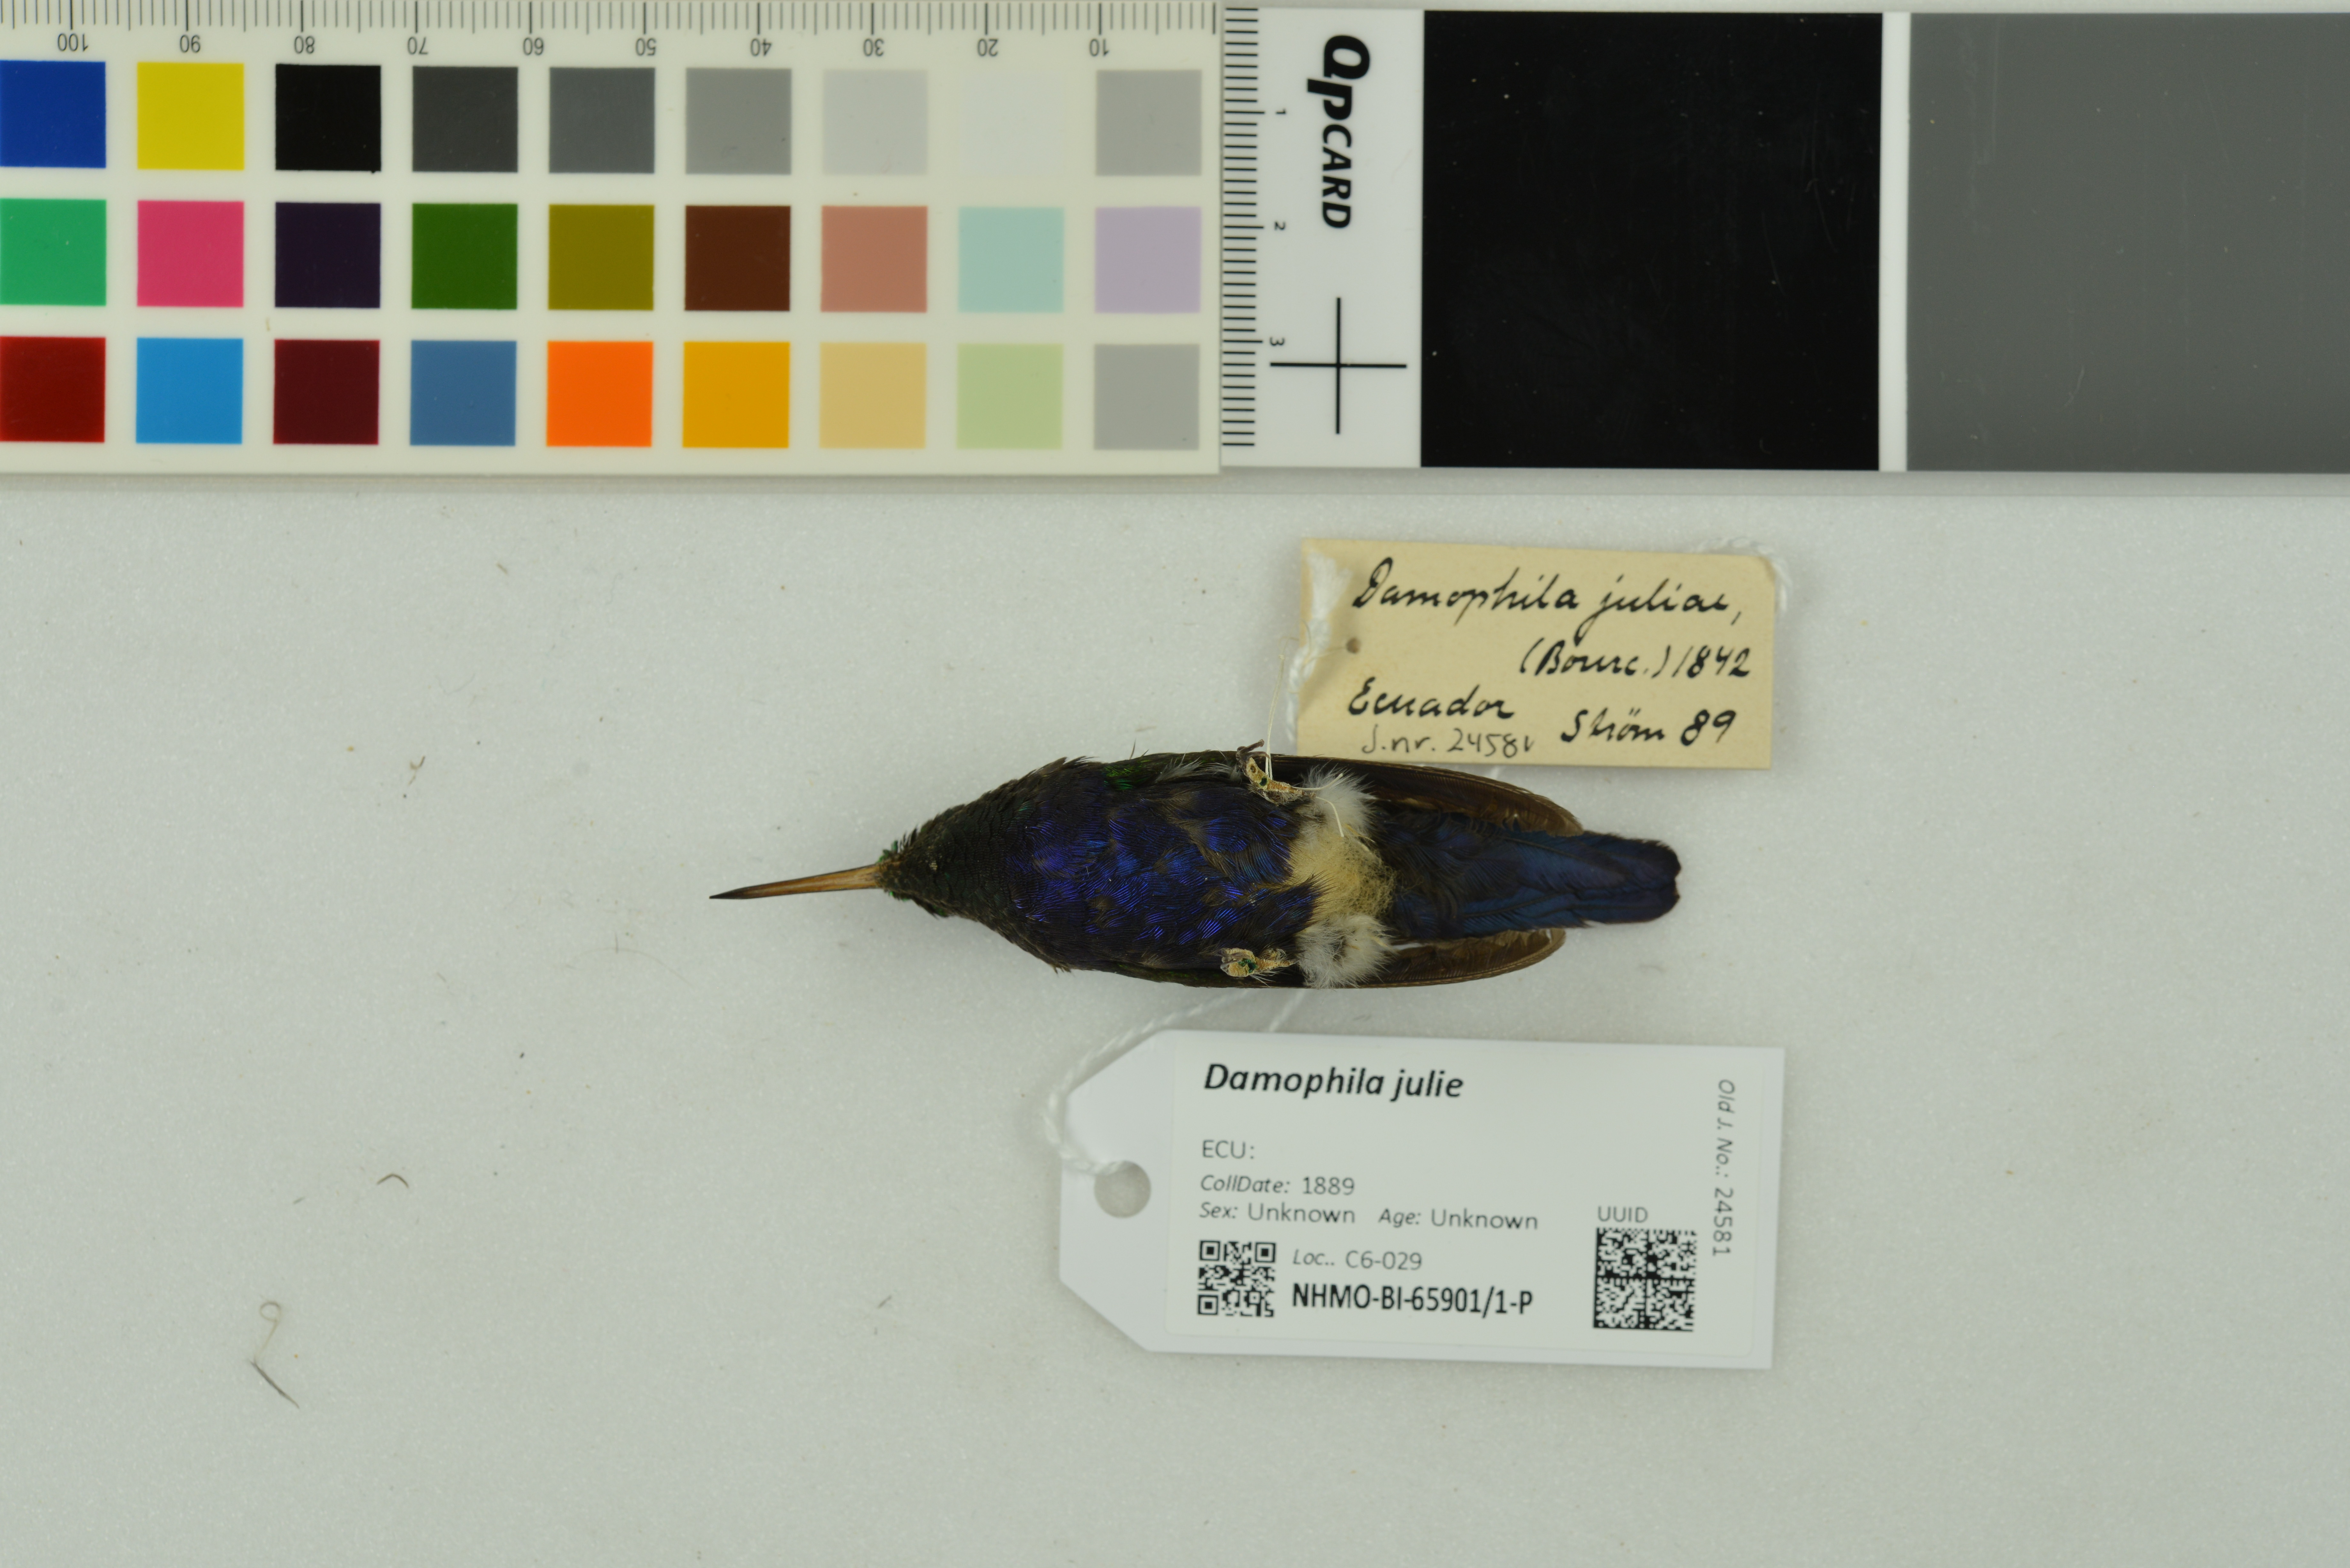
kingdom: Animalia
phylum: Chordata
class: Aves
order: Apodiformes
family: Trochilidae
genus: Chlorestes
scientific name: Chlorestes julie
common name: Violet-bellied hummingbird
